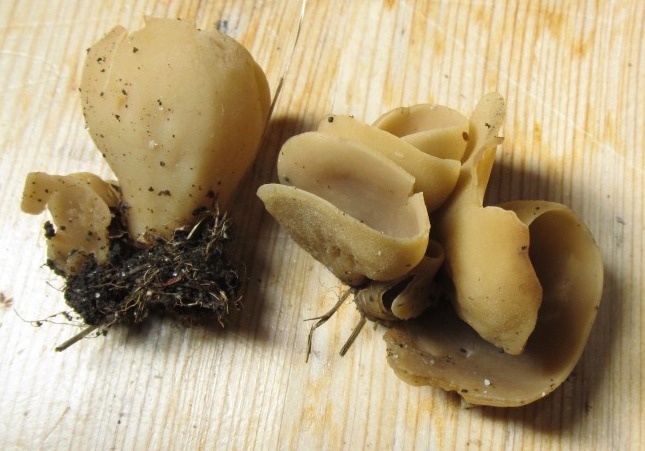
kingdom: Fungi
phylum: Ascomycota
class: Pezizomycetes
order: Pezizales
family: Otideaceae
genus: Otidea
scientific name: Otidea alutacea
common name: læder-ørebæger
